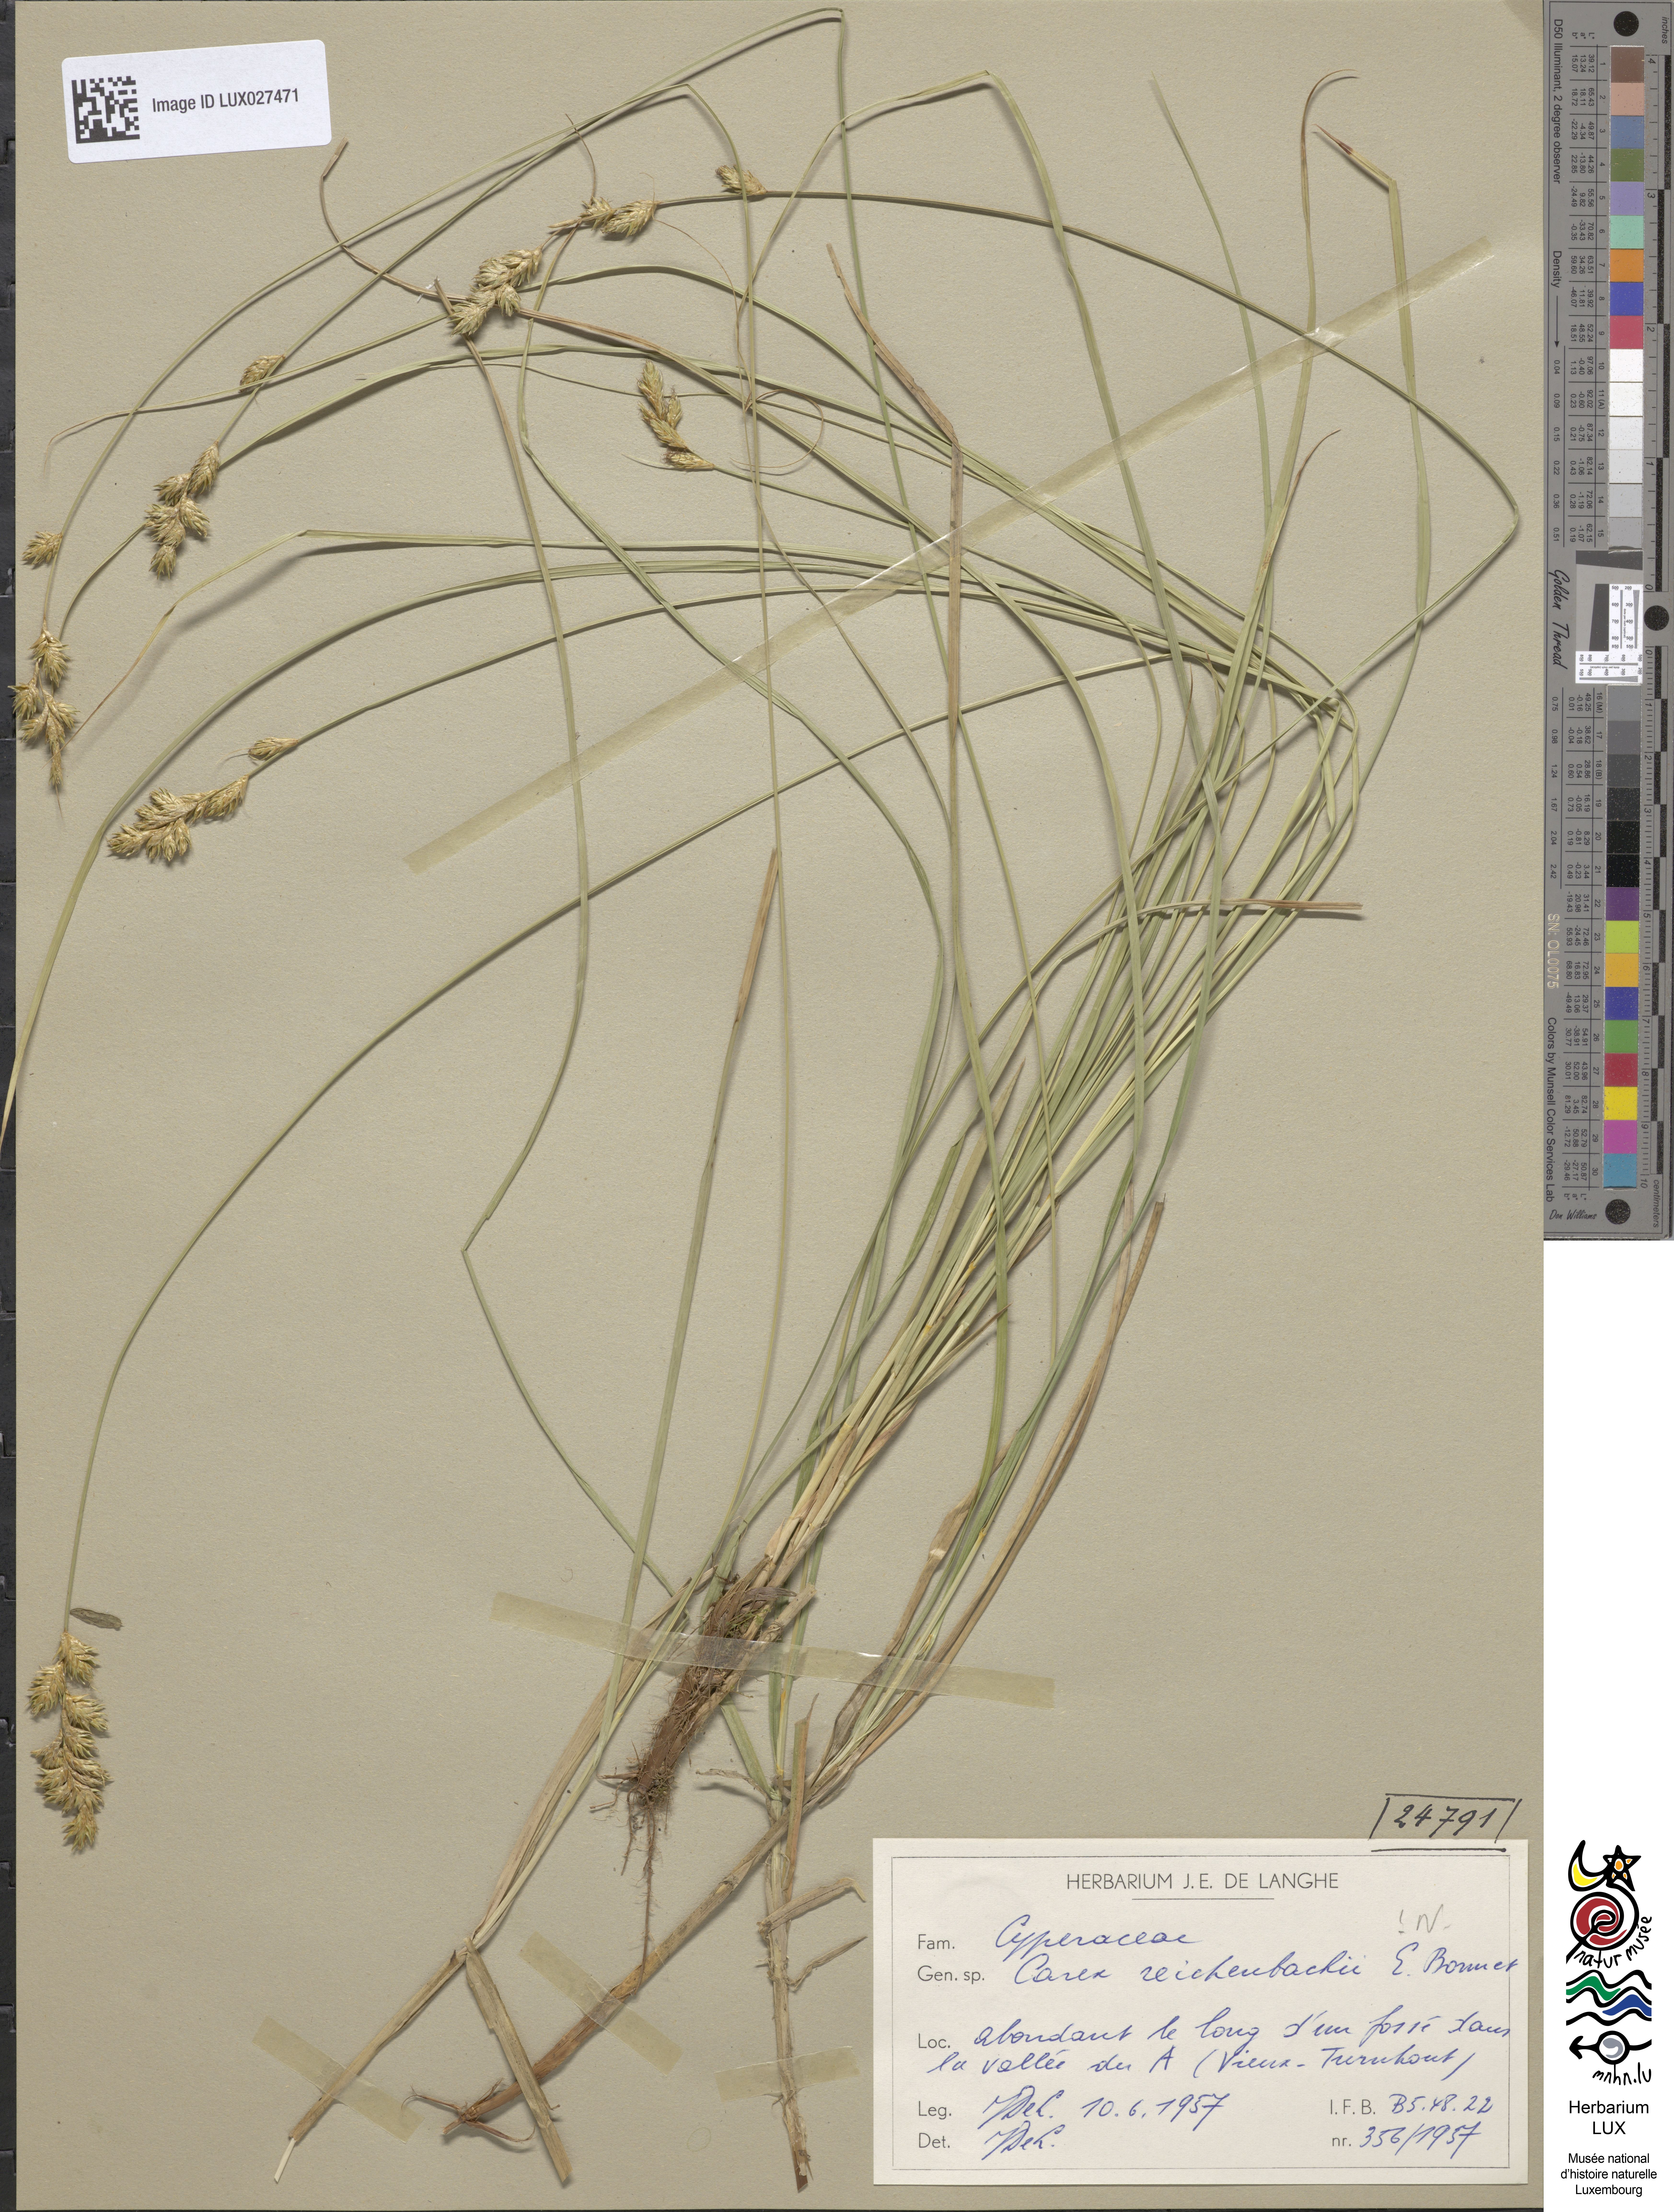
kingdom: Plantae
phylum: Tracheophyta
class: Liliopsida
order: Poales
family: Cyperaceae
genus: Carex
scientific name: Carex pseudobrizoides
